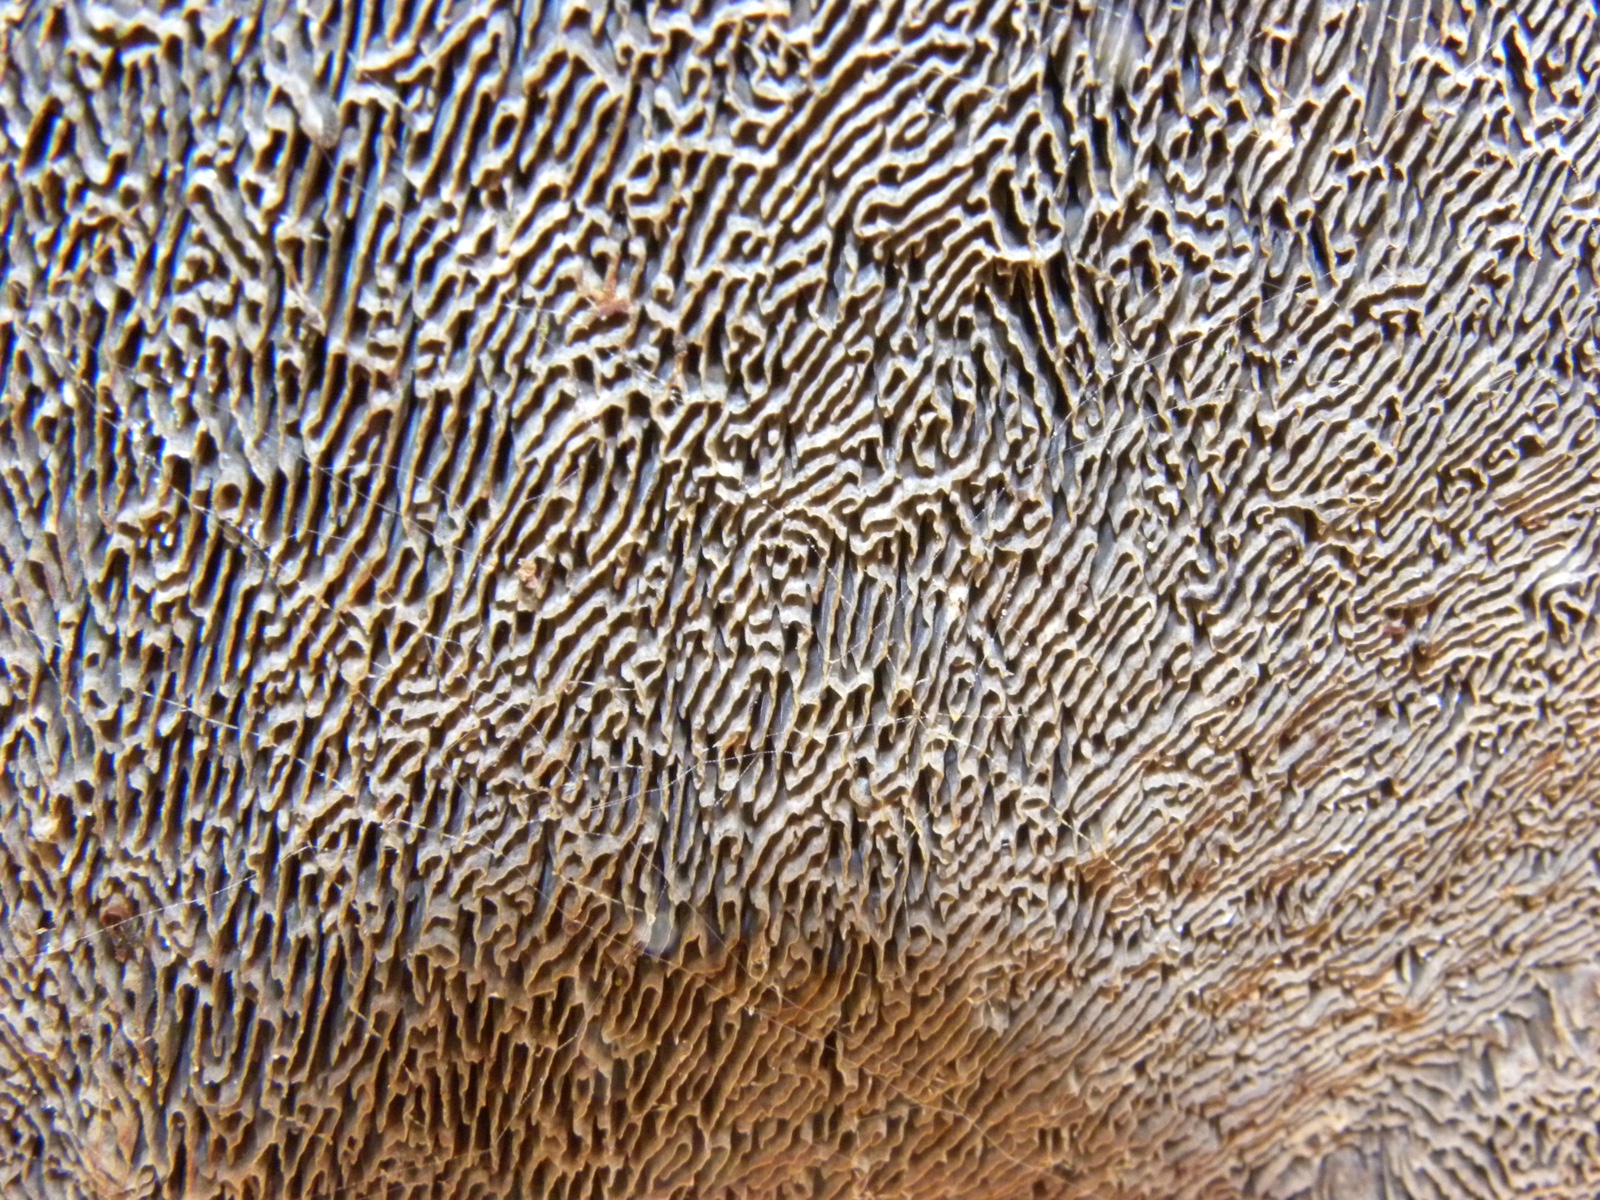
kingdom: Fungi
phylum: Basidiomycota
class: Agaricomycetes
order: Polyporales
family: Polyporaceae
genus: Daedaleopsis
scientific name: Daedaleopsis confragosa
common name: rødmende læderporesvamp
